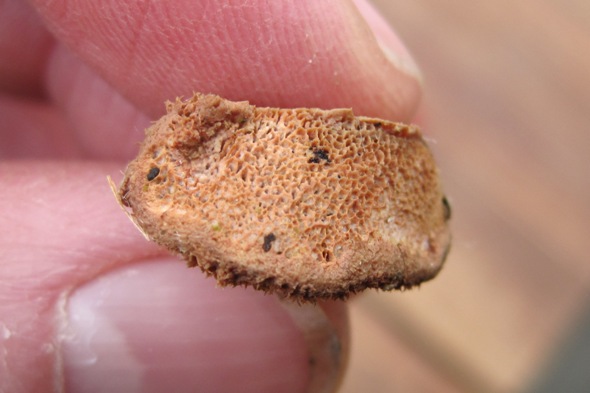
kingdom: Fungi
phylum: Basidiomycota
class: Agaricomycetes
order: Polyporales
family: Phanerochaetaceae
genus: Hapalopilus
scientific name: Hapalopilus rutilans
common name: rødlig okkerporesvamp
